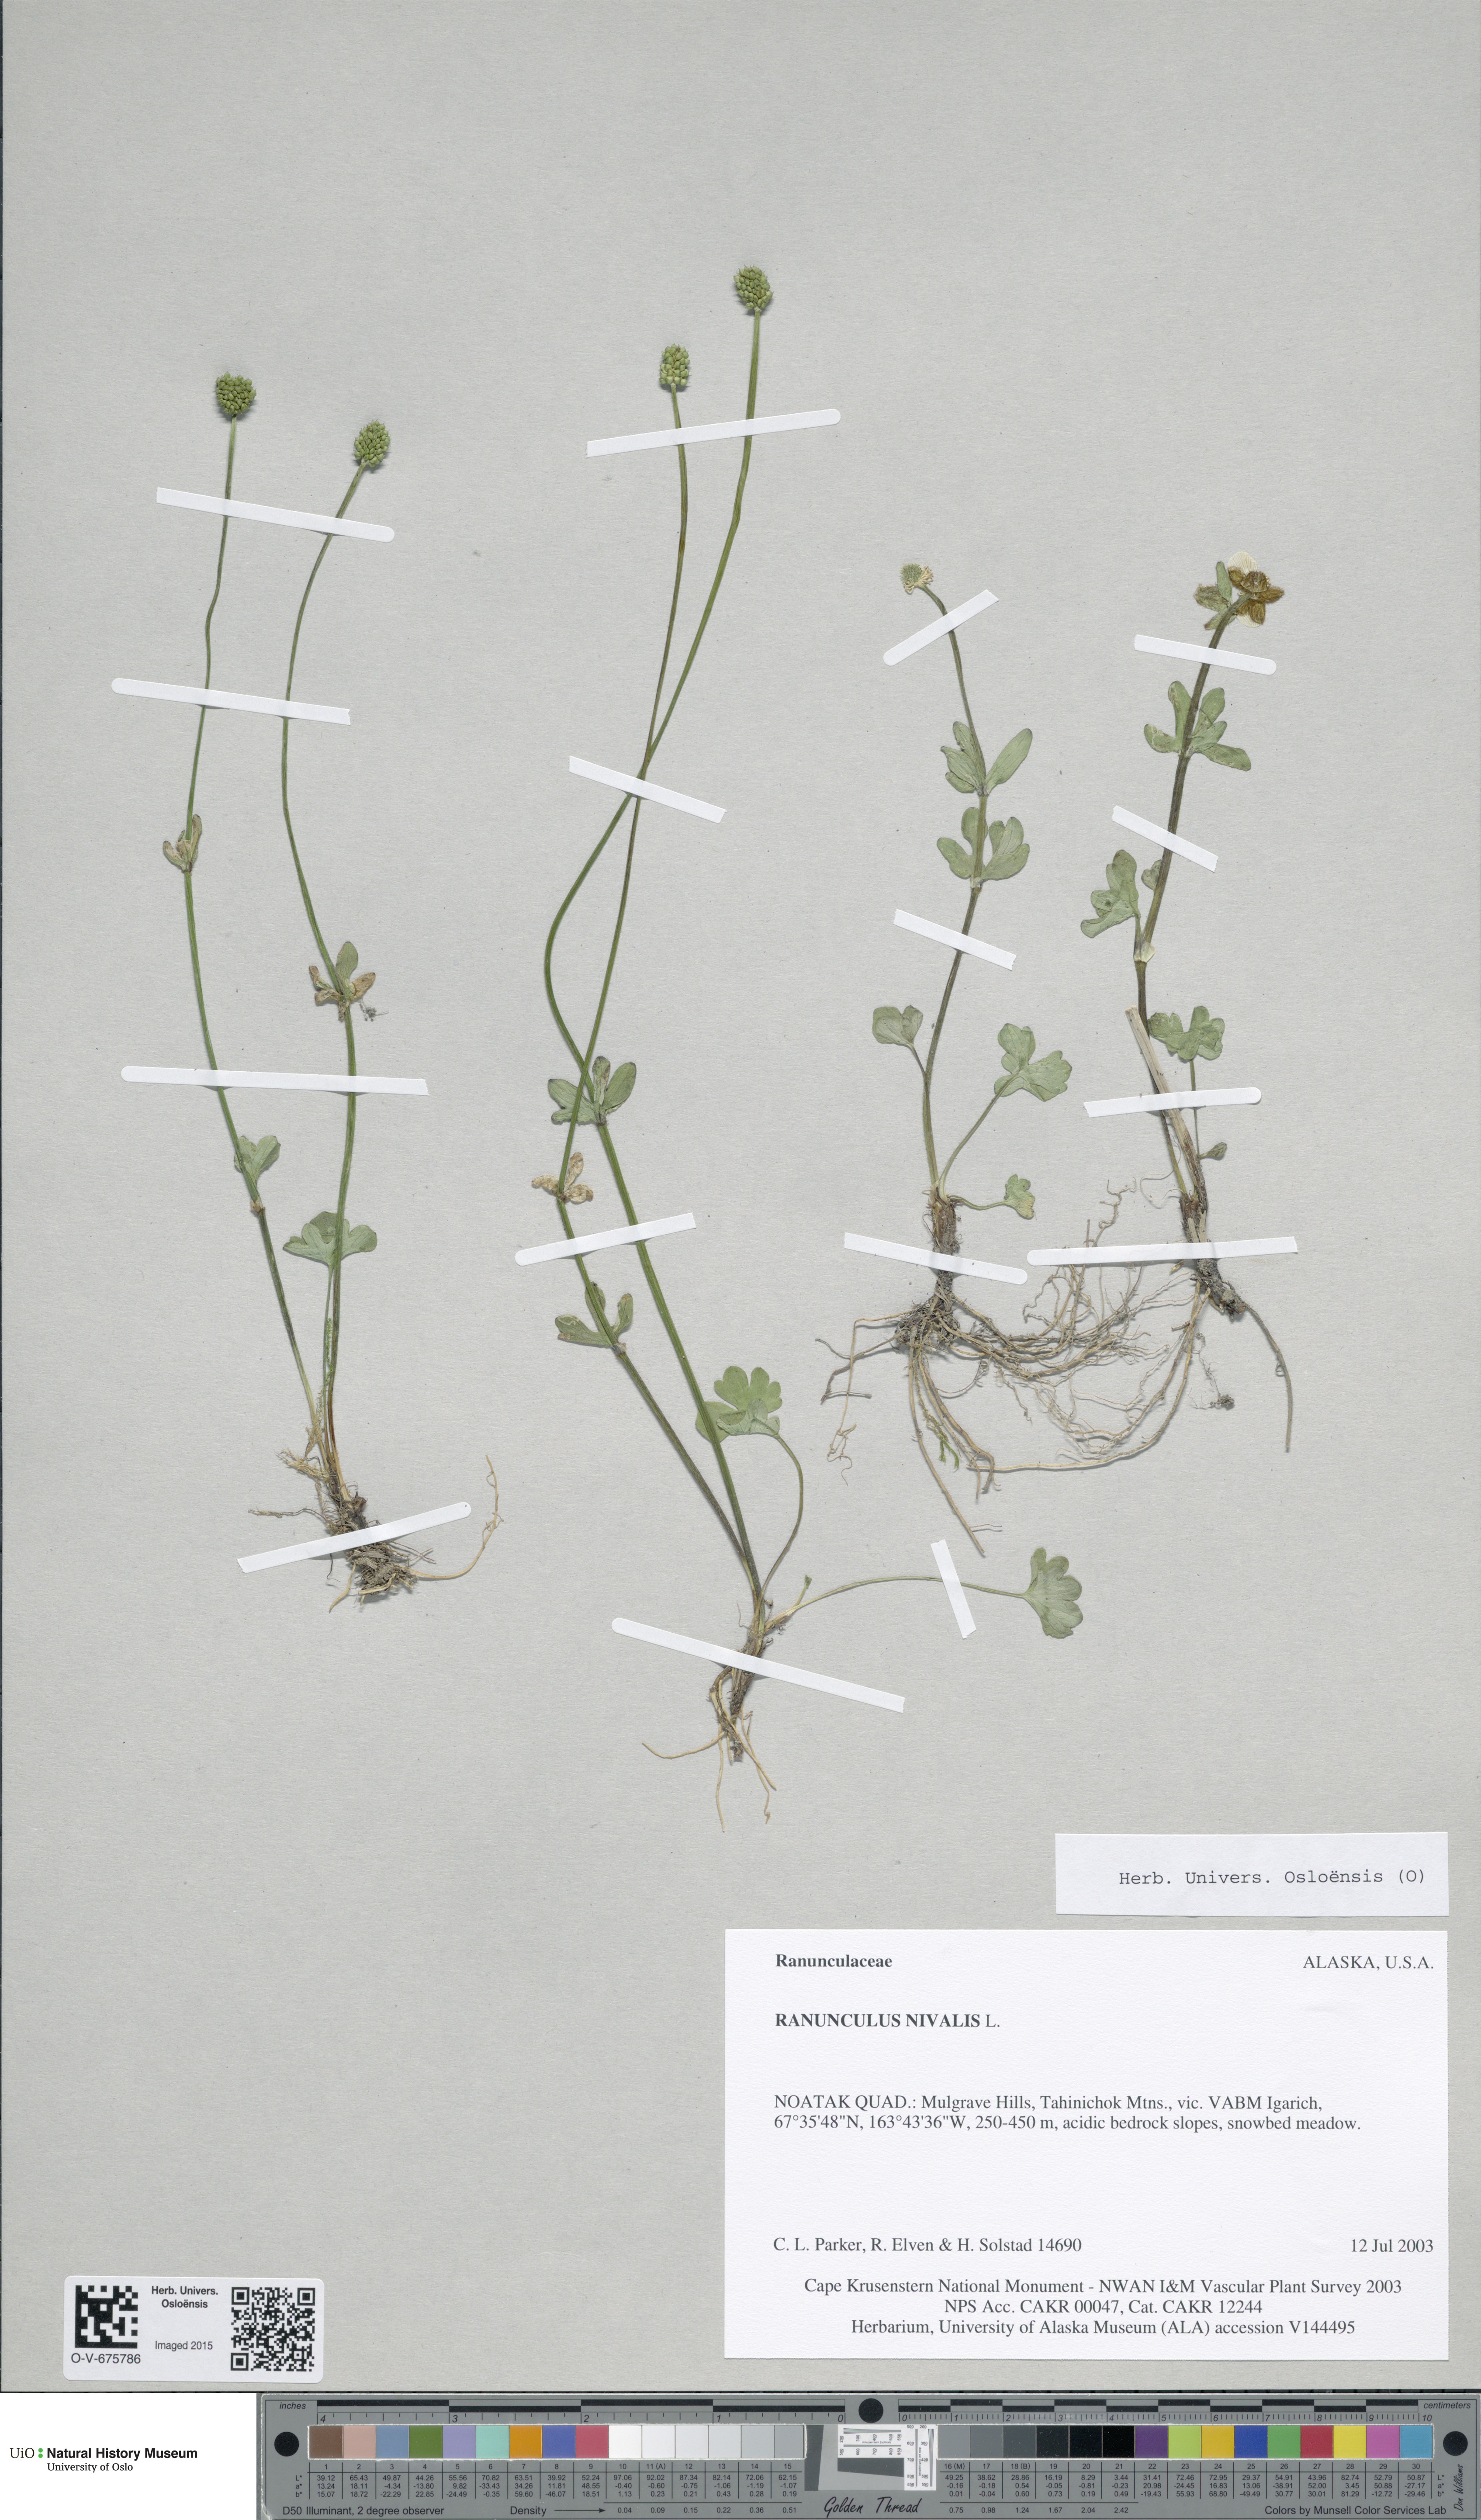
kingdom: Plantae
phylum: Tracheophyta
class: Magnoliopsida
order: Ranunculales
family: Ranunculaceae
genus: Ranunculus
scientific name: Ranunculus nivalis
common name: Snow buttercup
